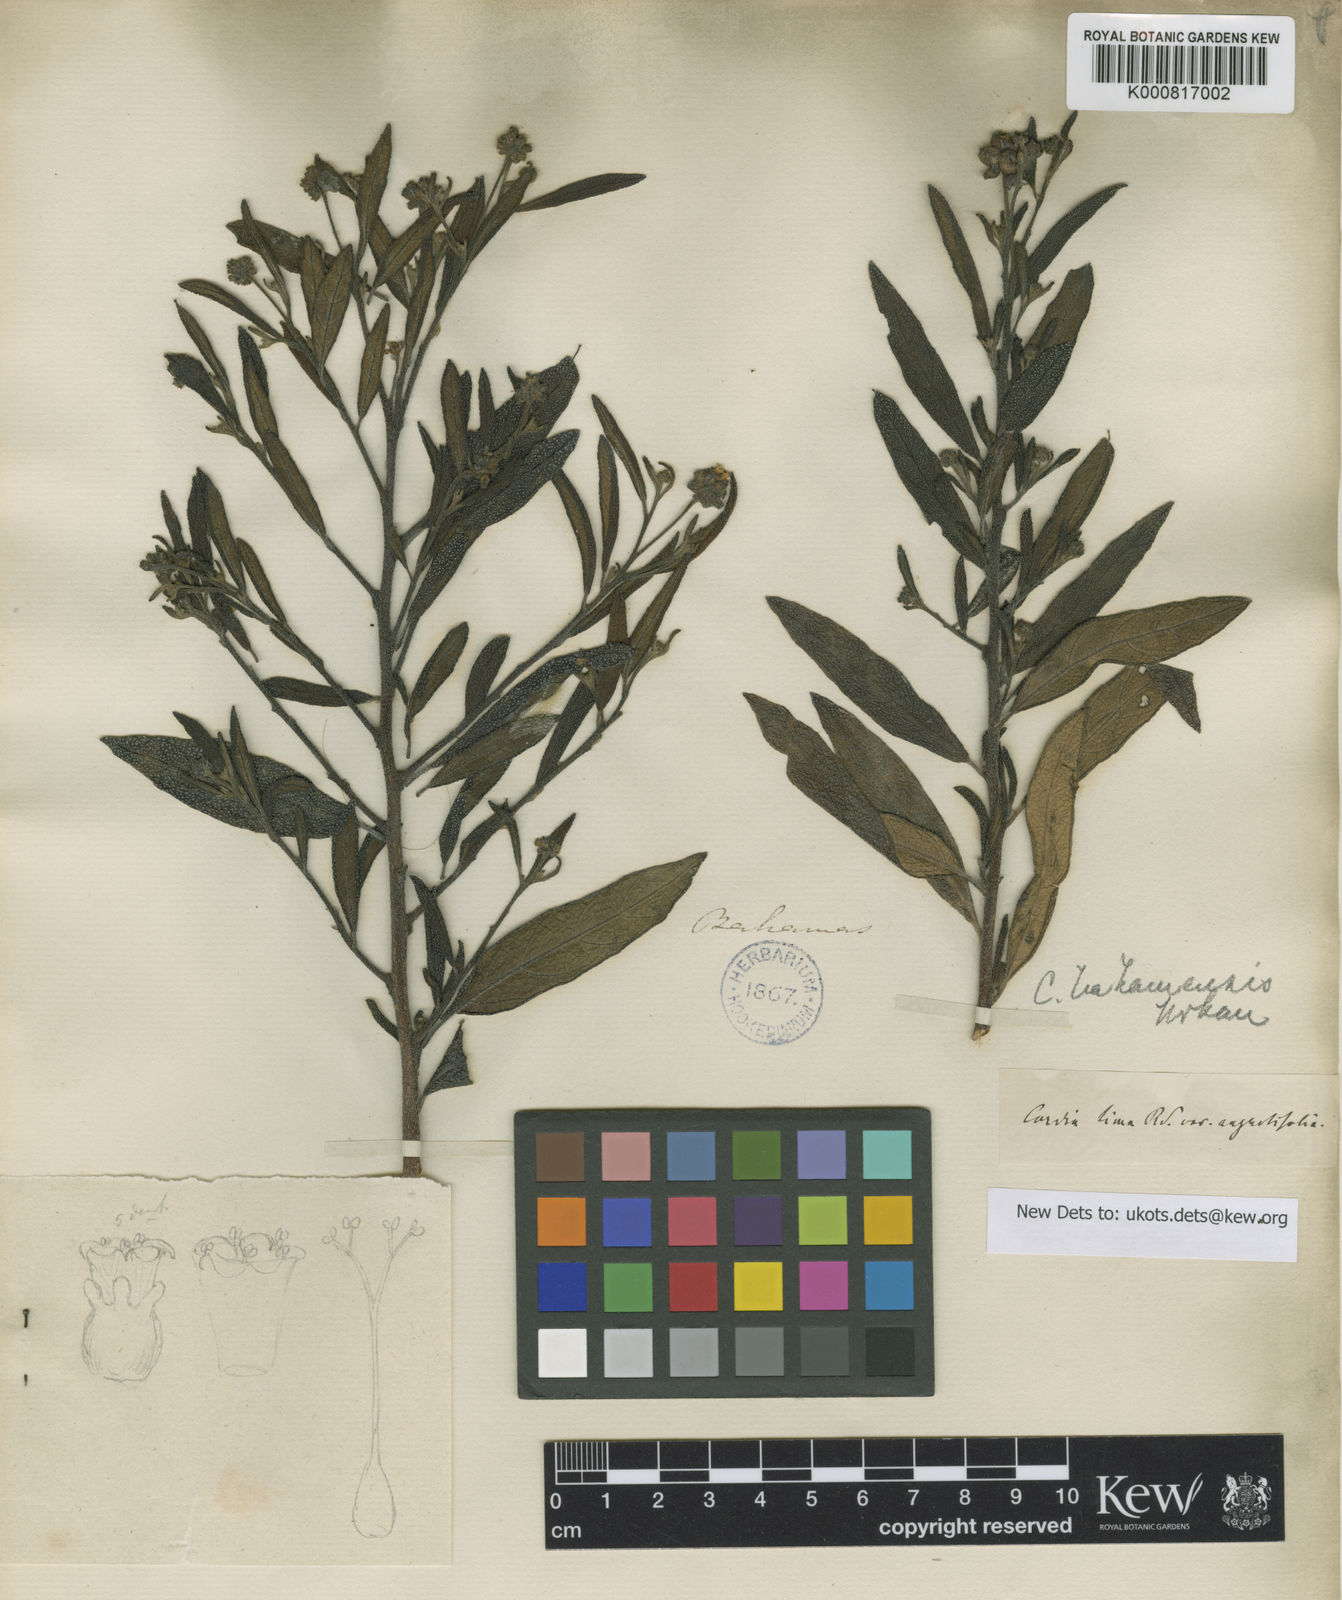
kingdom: Plantae
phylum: Tracheophyta
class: Magnoliopsida
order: Boraginales
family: Cordiaceae
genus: Varronia
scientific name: Varronia bahamensis
